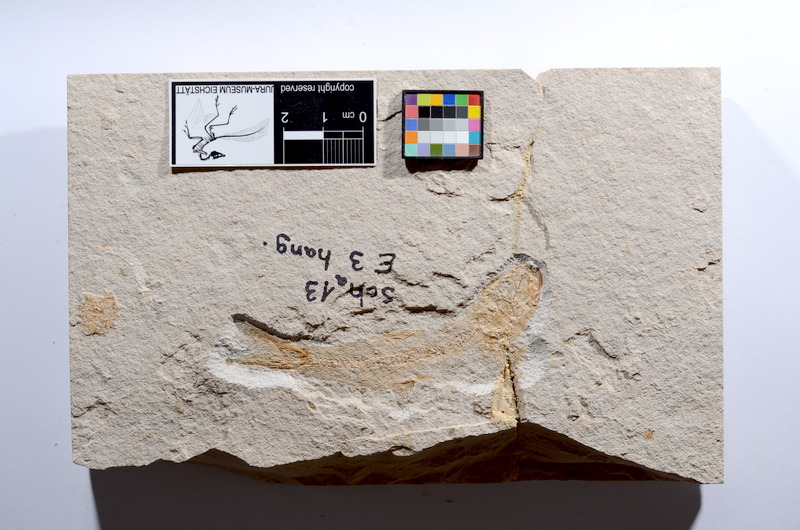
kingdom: Animalia
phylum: Chordata
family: Ascalaboidae
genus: Tharsis
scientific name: Tharsis dubius
